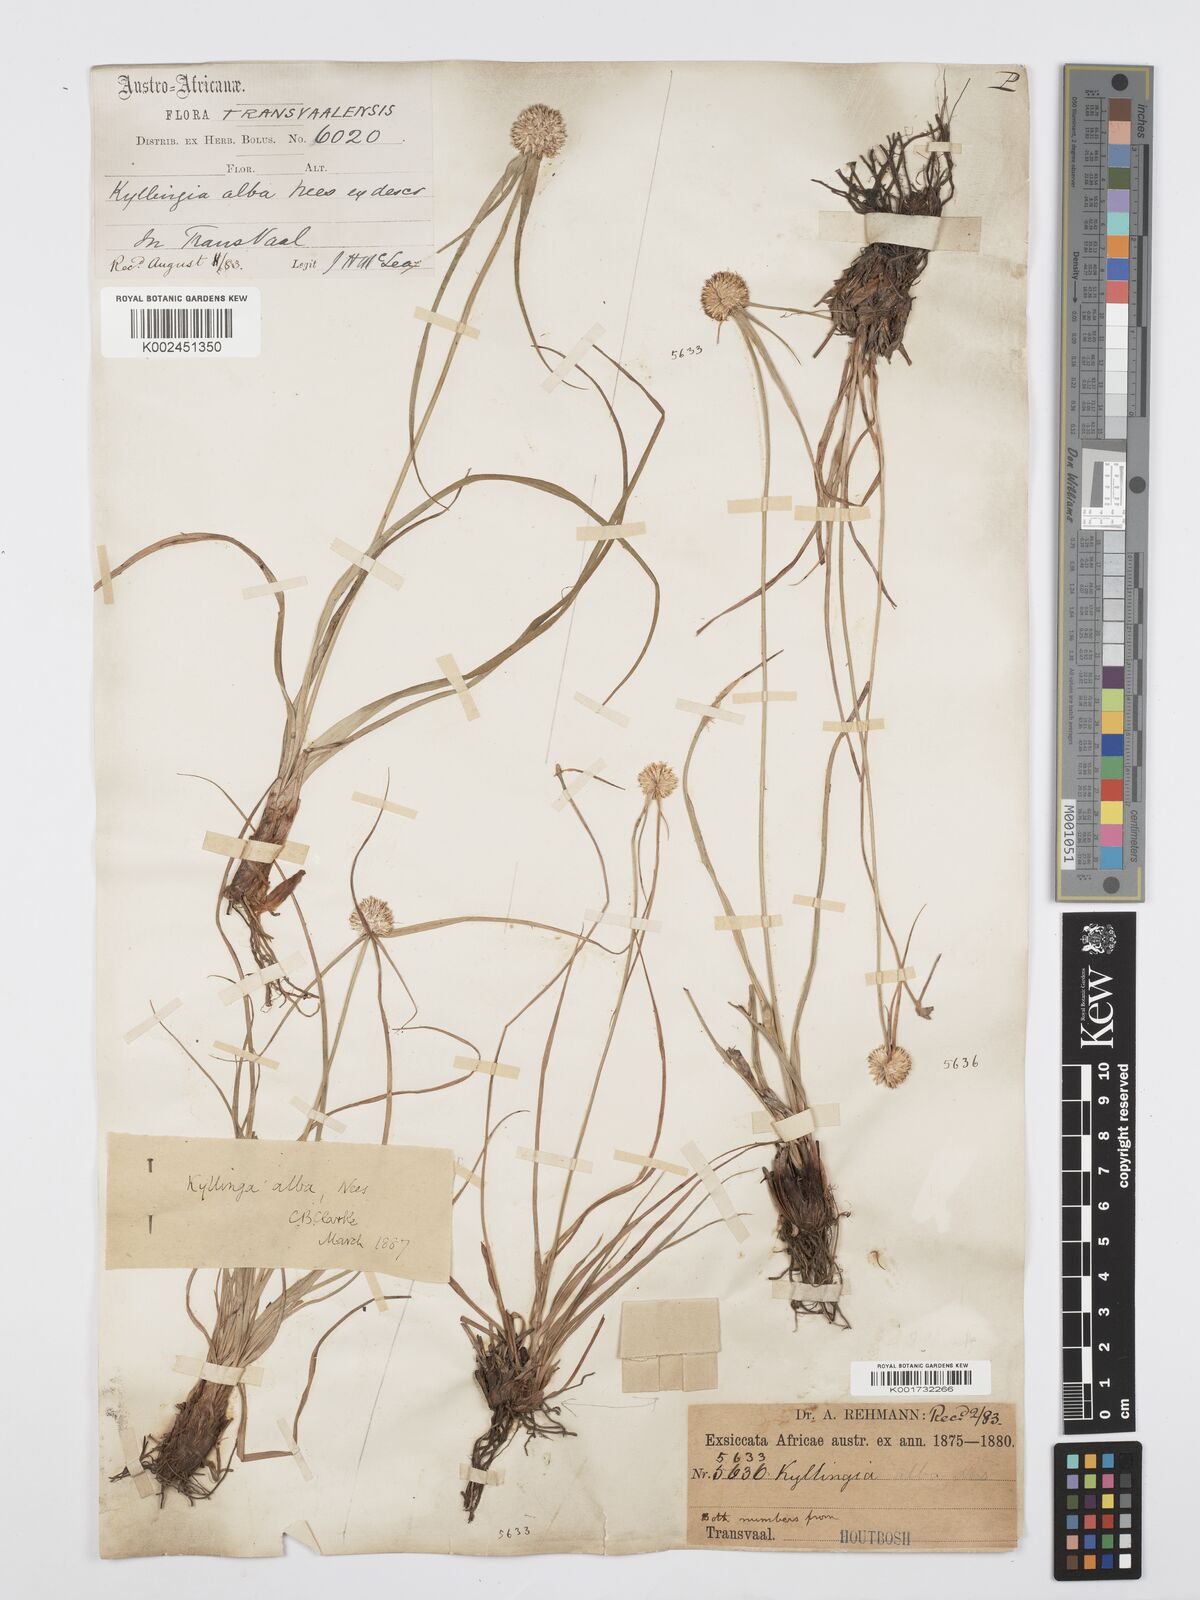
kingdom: Plantae
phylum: Tracheophyta
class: Liliopsida
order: Poales
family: Cyperaceae
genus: Cyperus
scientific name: Cyperus
